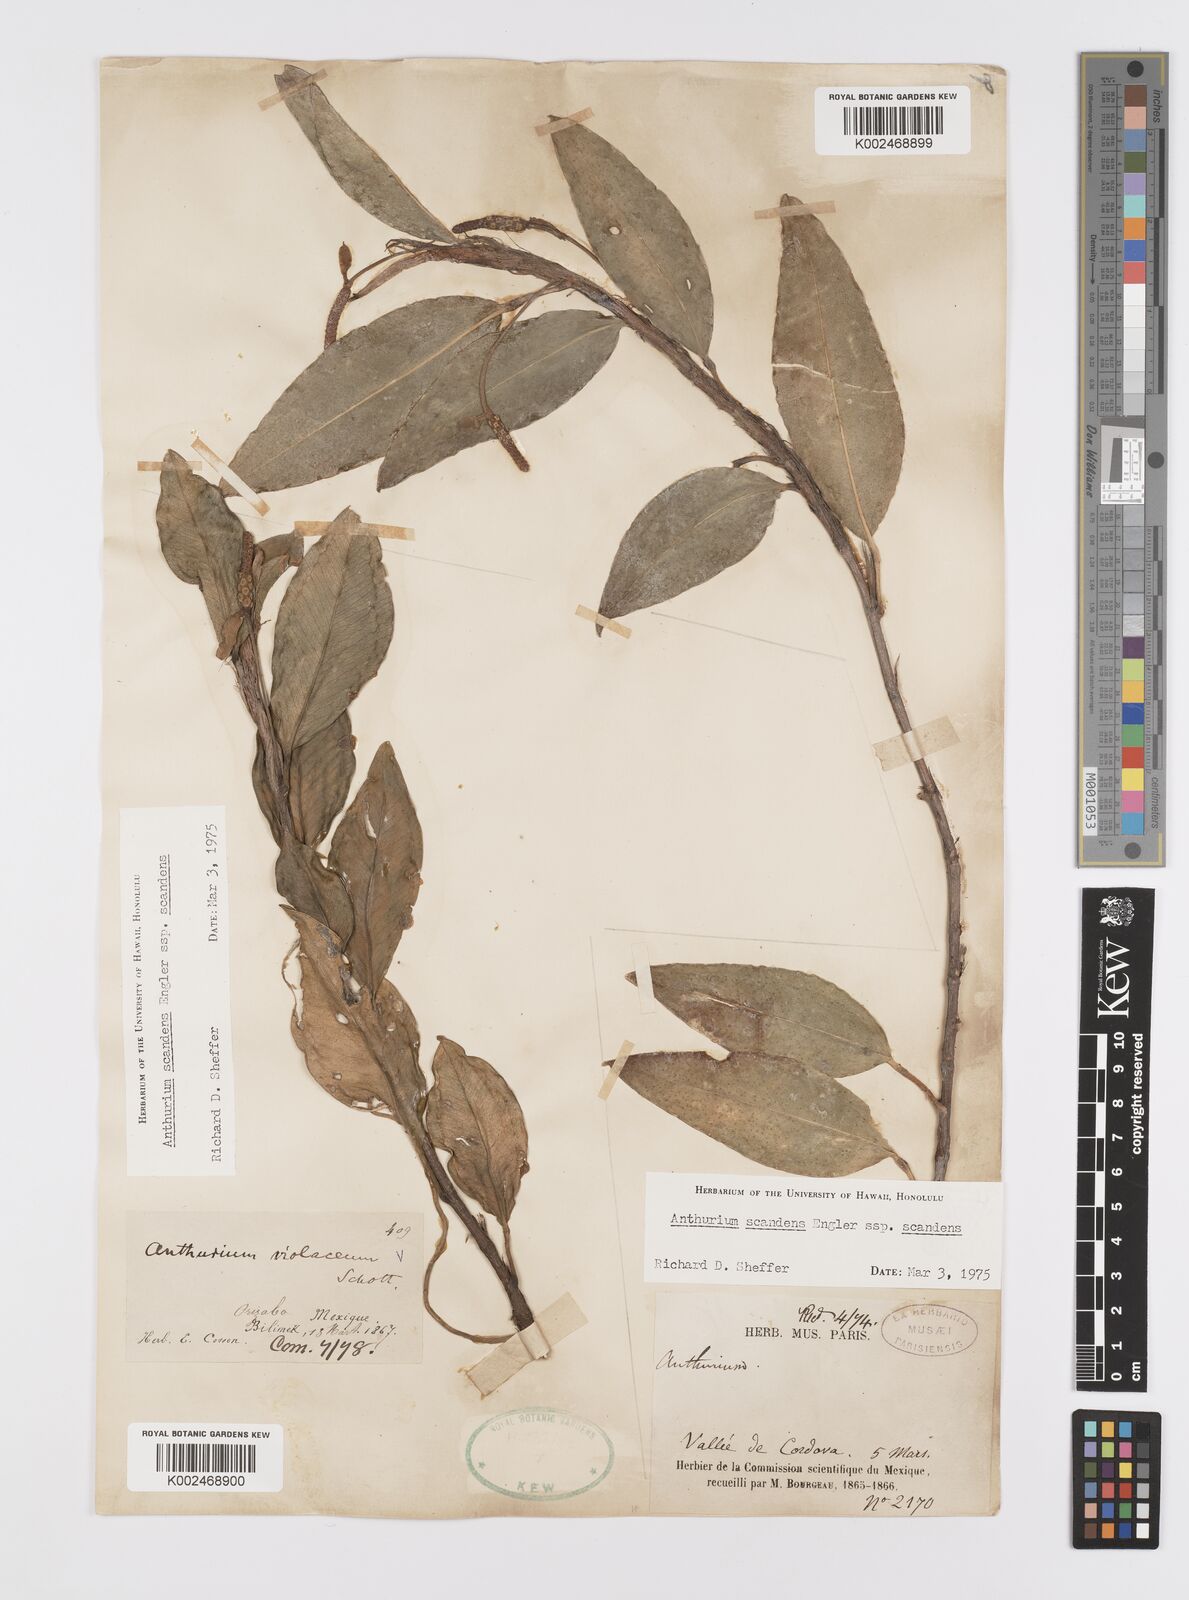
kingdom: Plantae
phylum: Tracheophyta
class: Liliopsida
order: Alismatales
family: Araceae
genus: Anthurium
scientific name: Anthurium scandens
